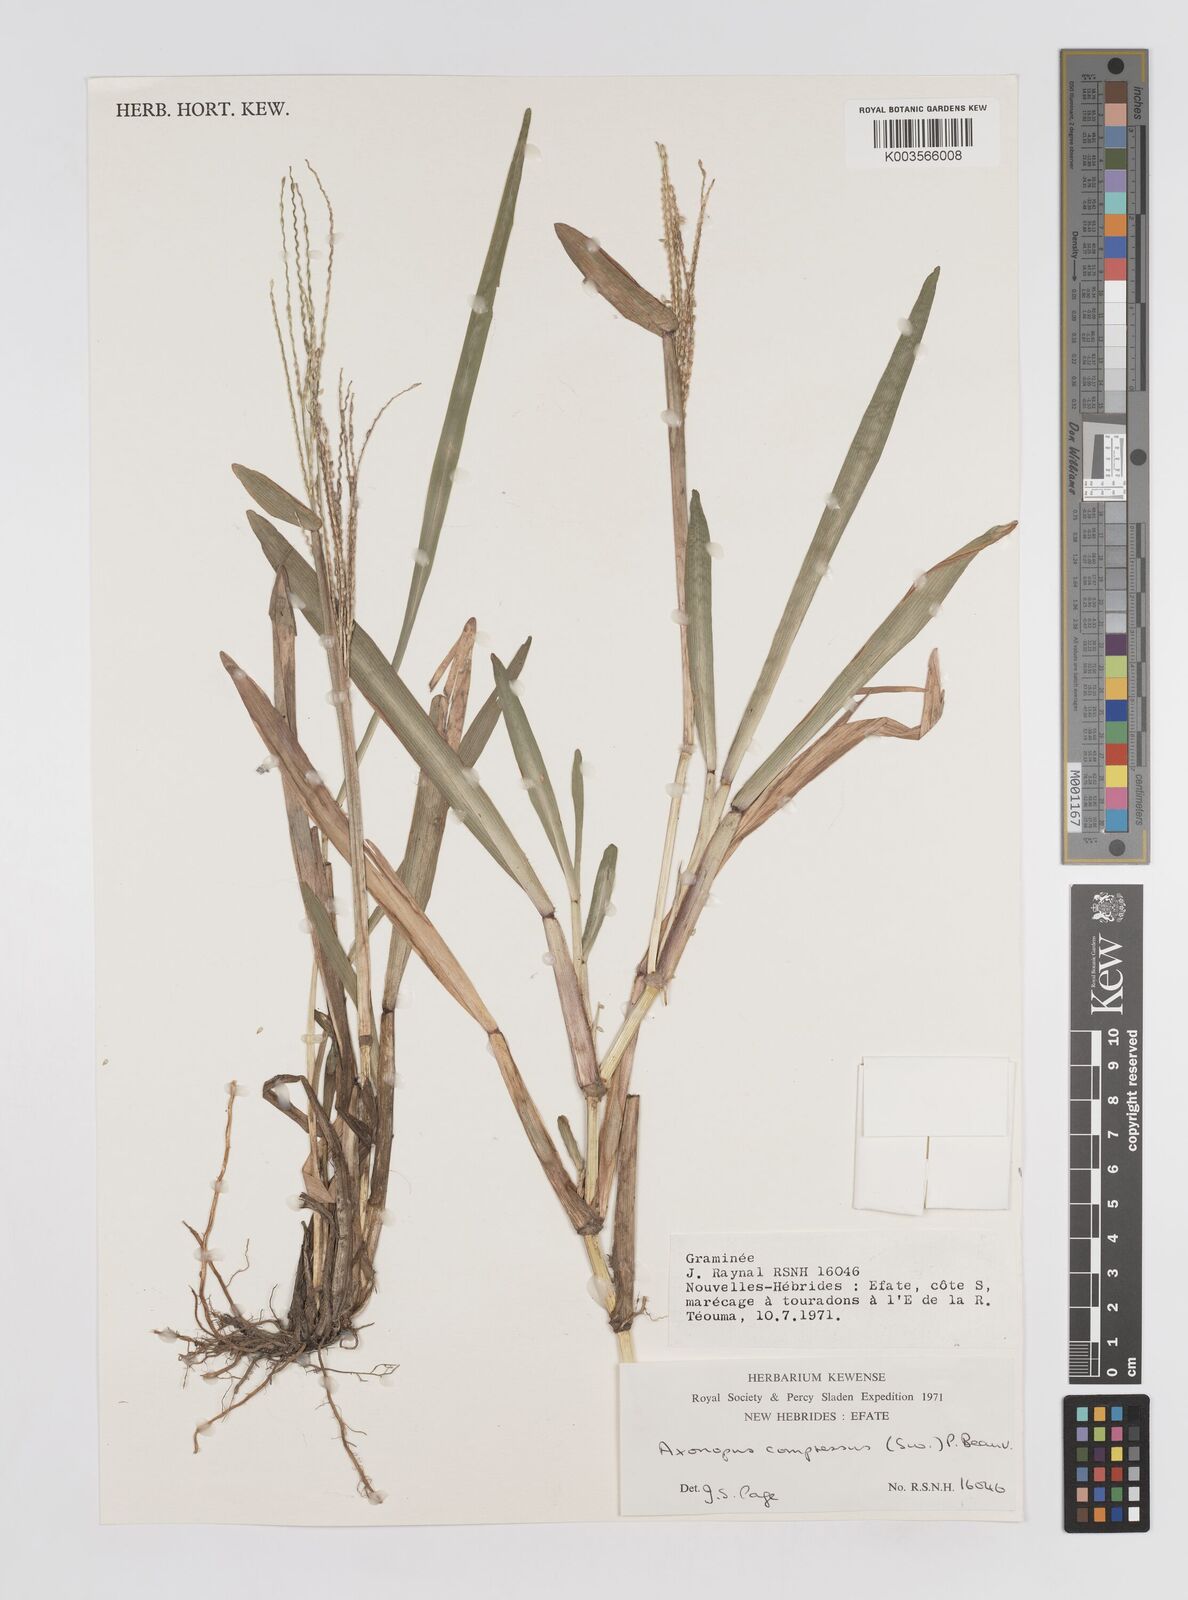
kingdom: Plantae
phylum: Tracheophyta
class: Liliopsida
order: Poales
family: Poaceae
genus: Axonopus
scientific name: Axonopus compressus
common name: American carpet grass
